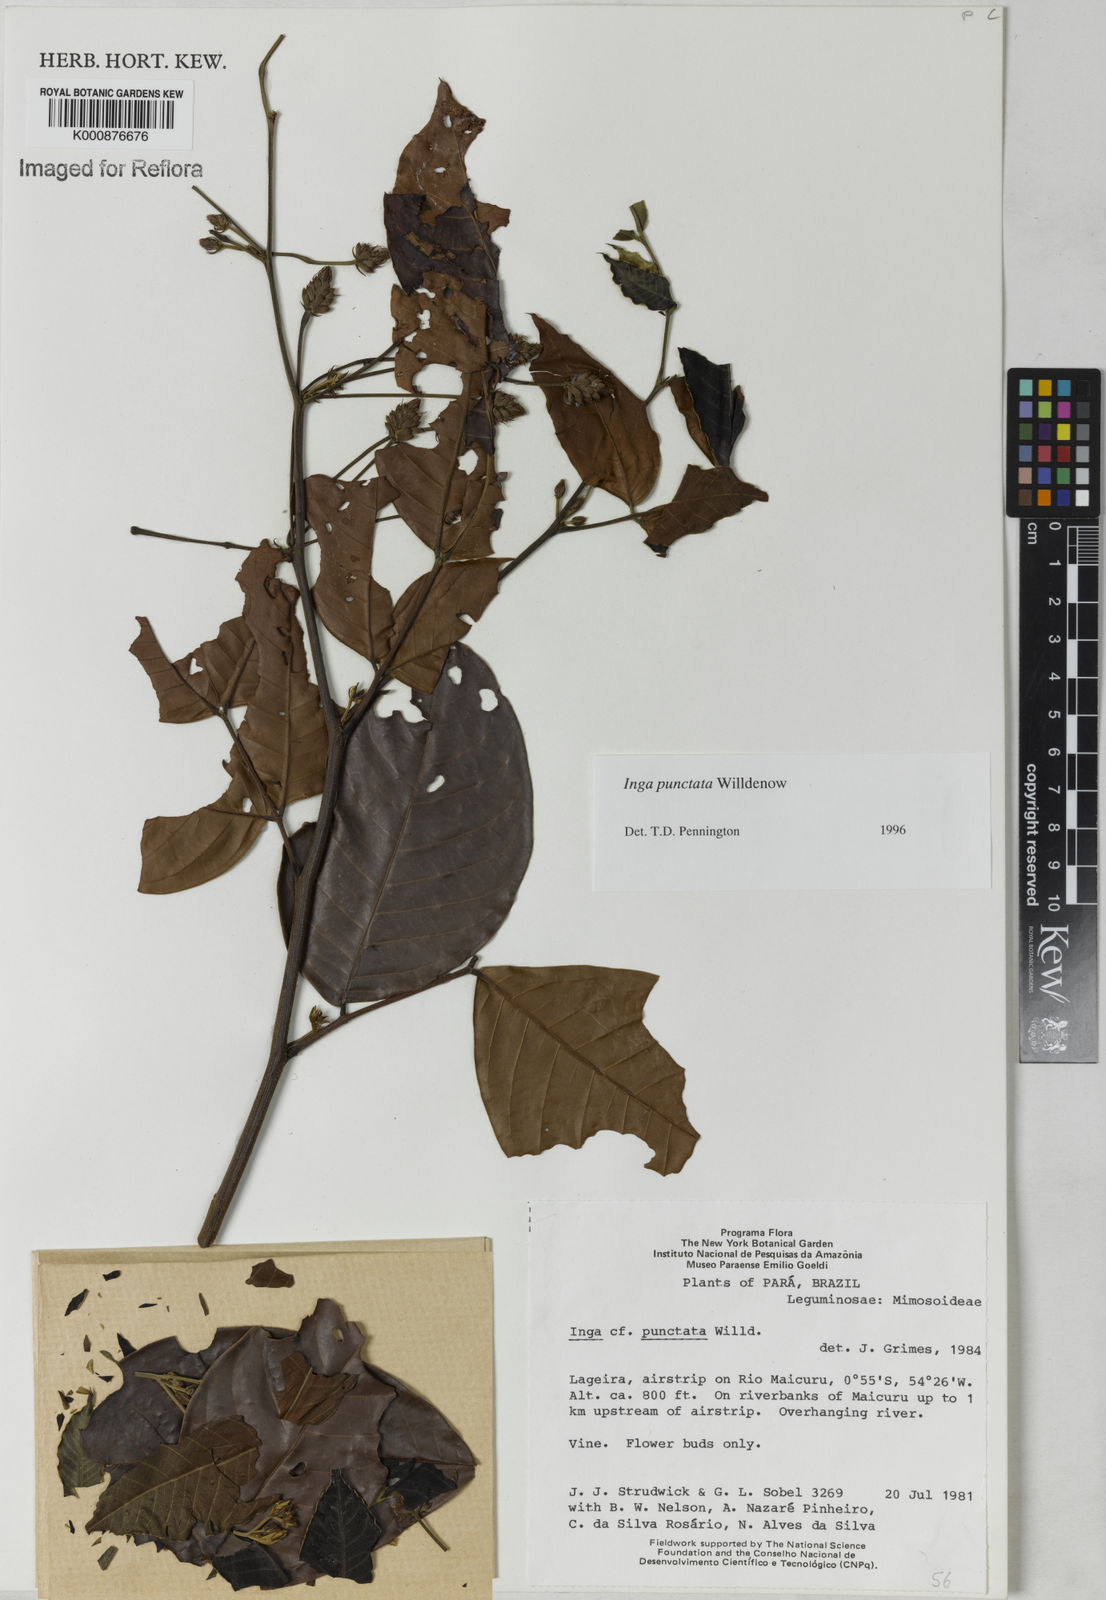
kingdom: Plantae
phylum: Tracheophyta
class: Magnoliopsida
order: Fabales
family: Fabaceae
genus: Inga
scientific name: Inga punctata
